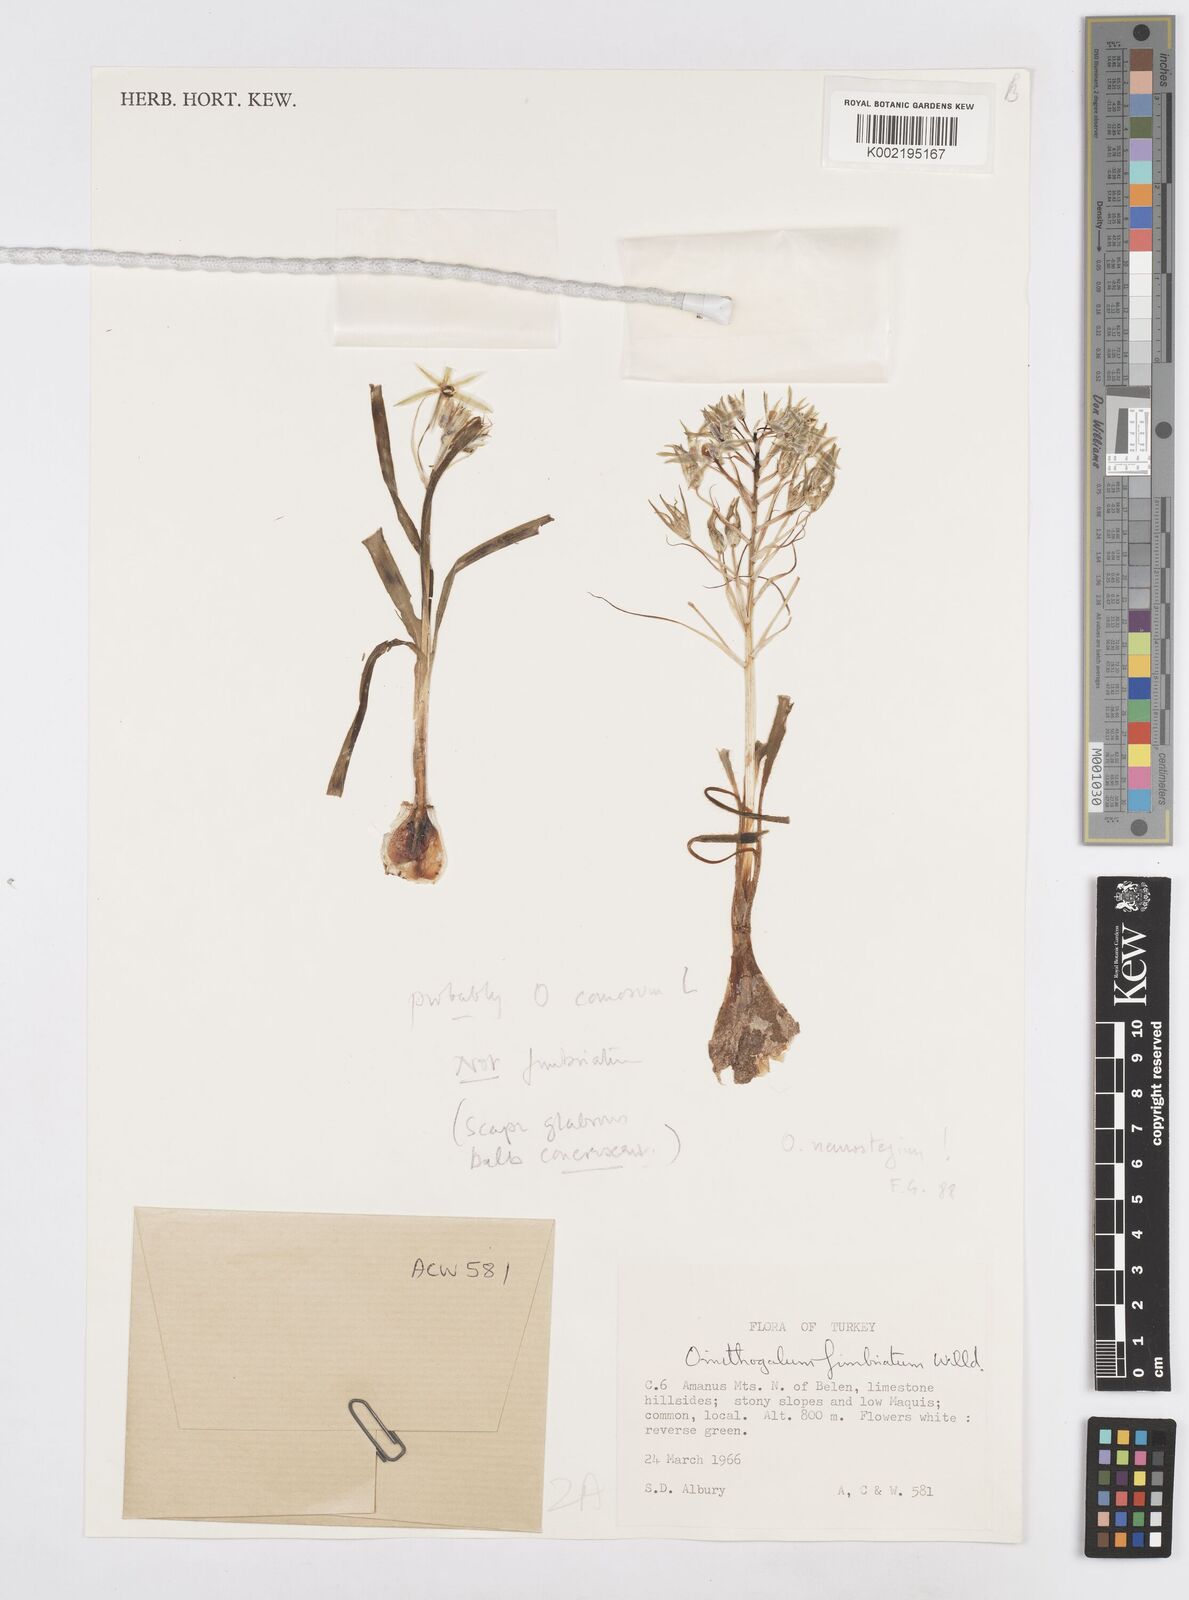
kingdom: Plantae
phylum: Tracheophyta
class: Liliopsida
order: Asparagales
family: Asparagaceae
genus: Ornithogalum
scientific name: Ornithogalum neurostegium
